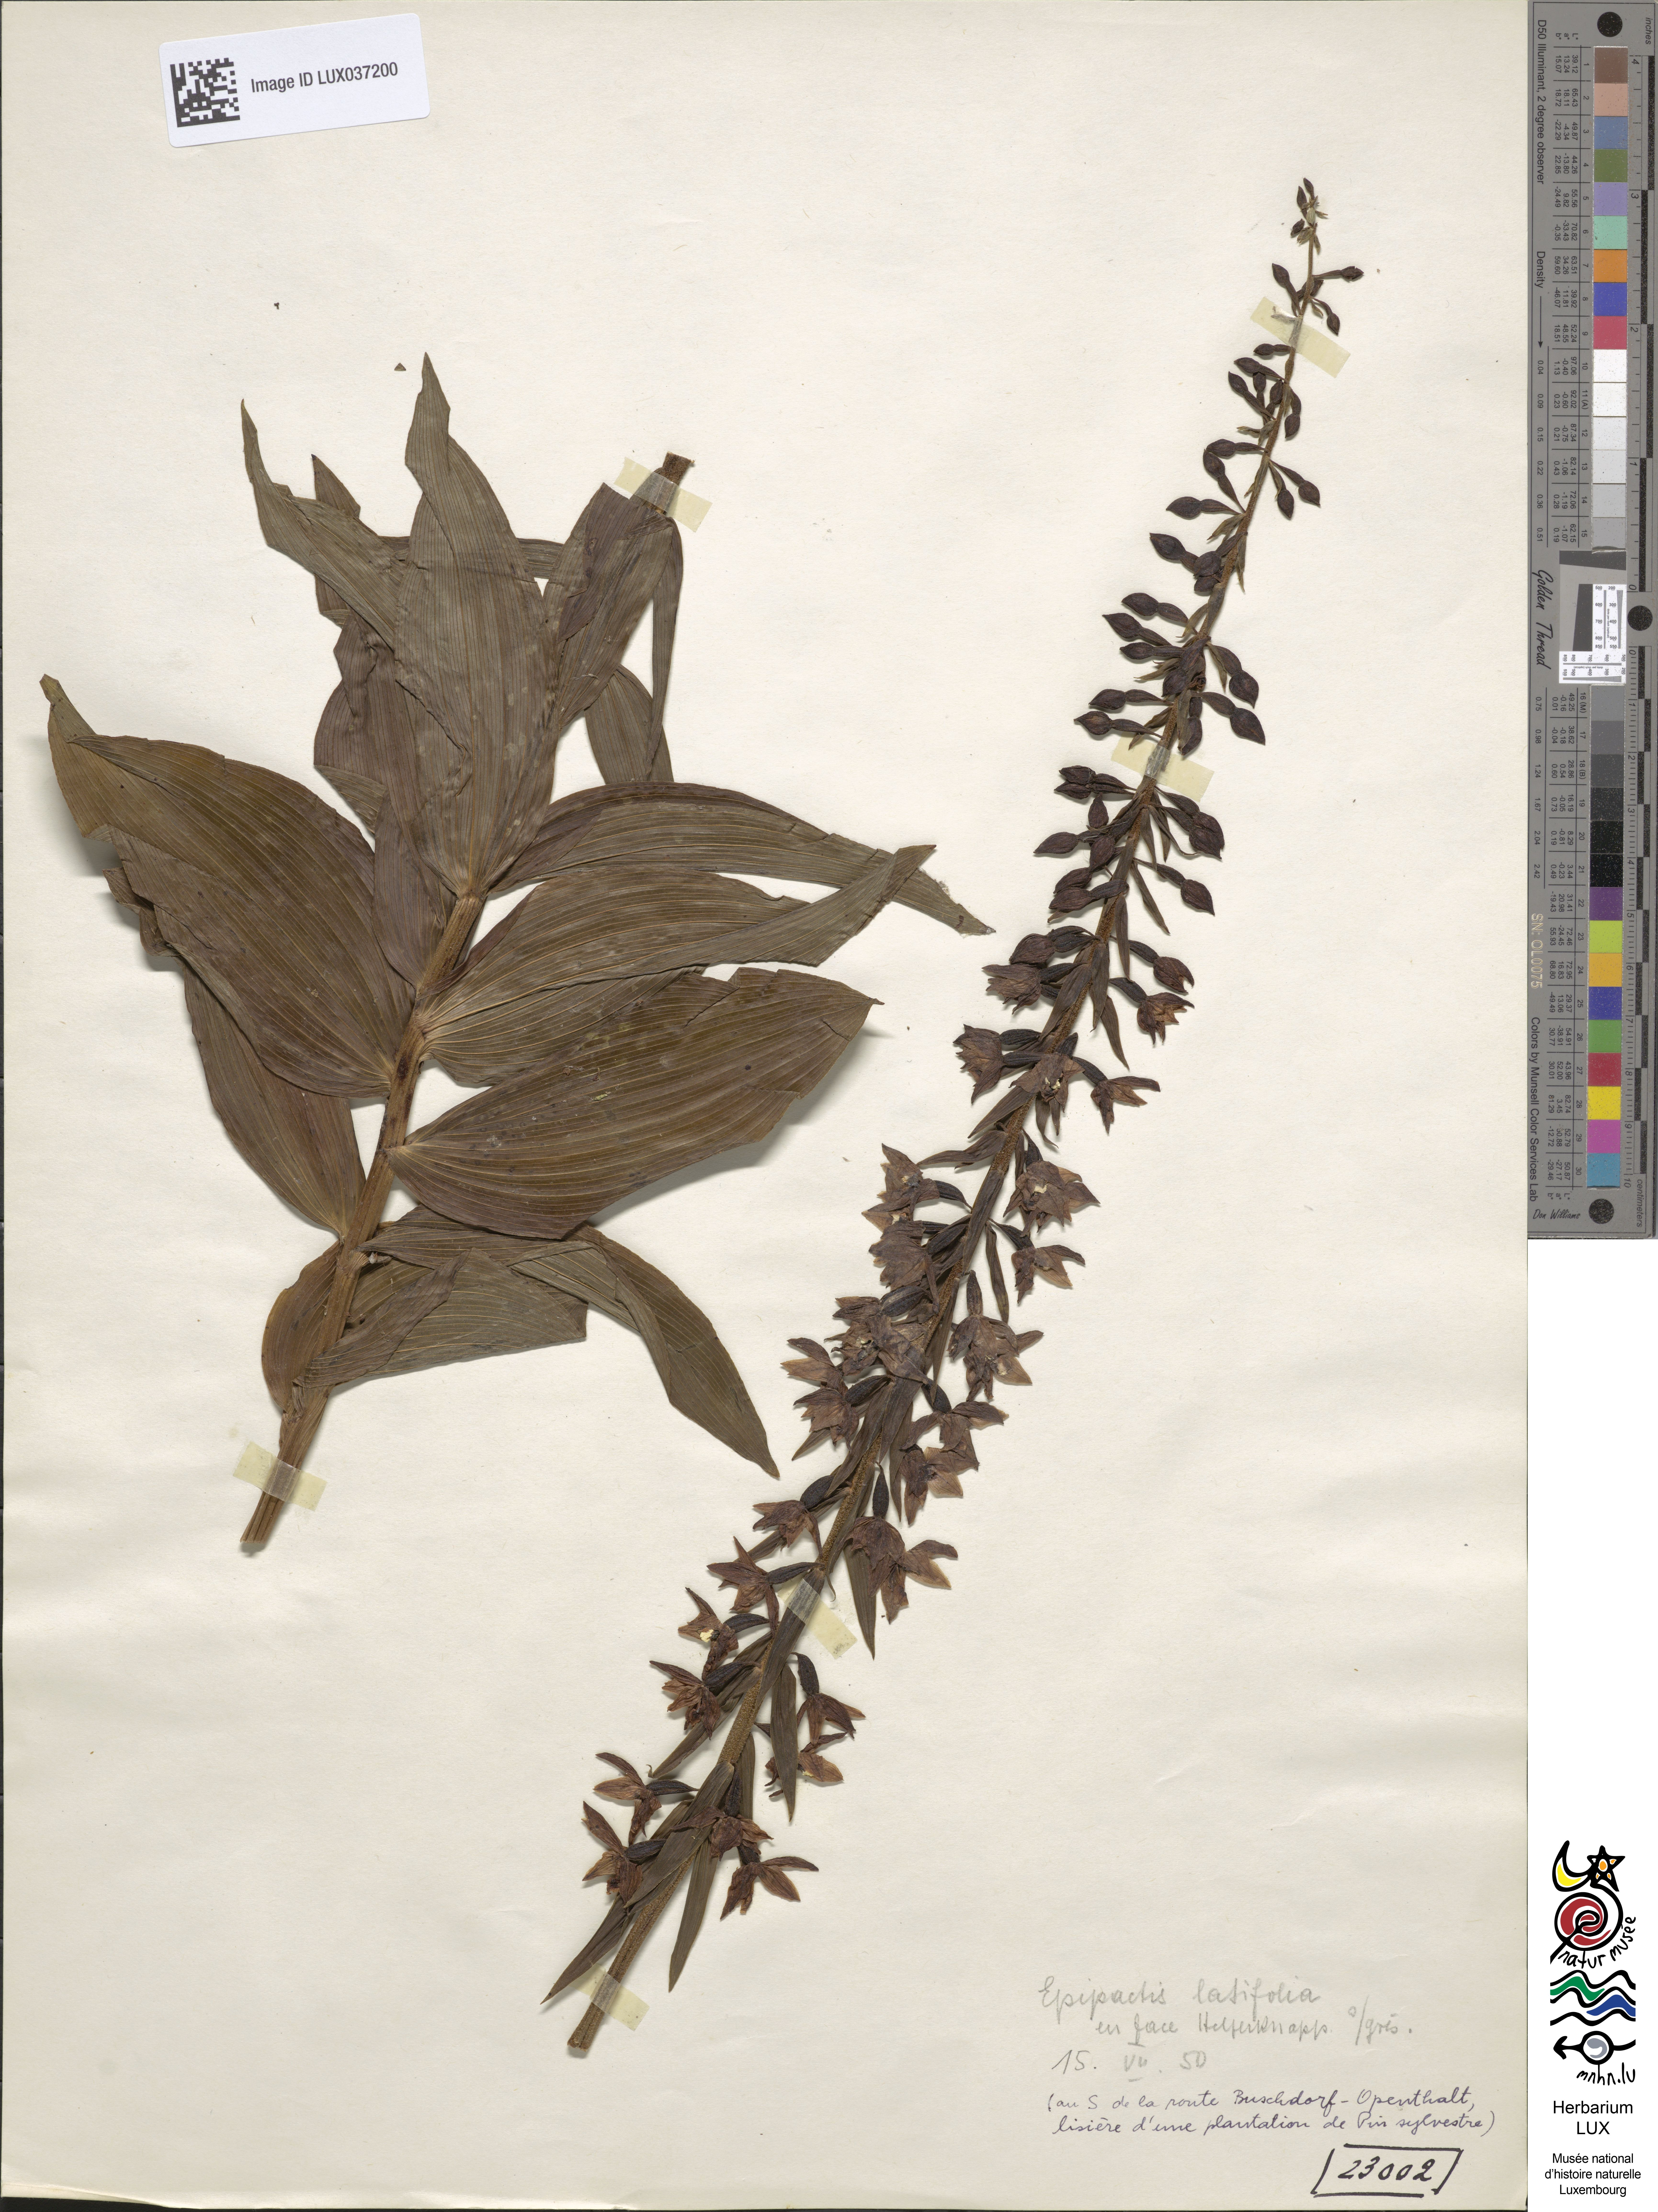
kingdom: Plantae
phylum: Tracheophyta
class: Liliopsida
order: Asparagales
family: Orchidaceae
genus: Epipactis
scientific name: Epipactis helleborine
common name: Broad-leaved helleborine
